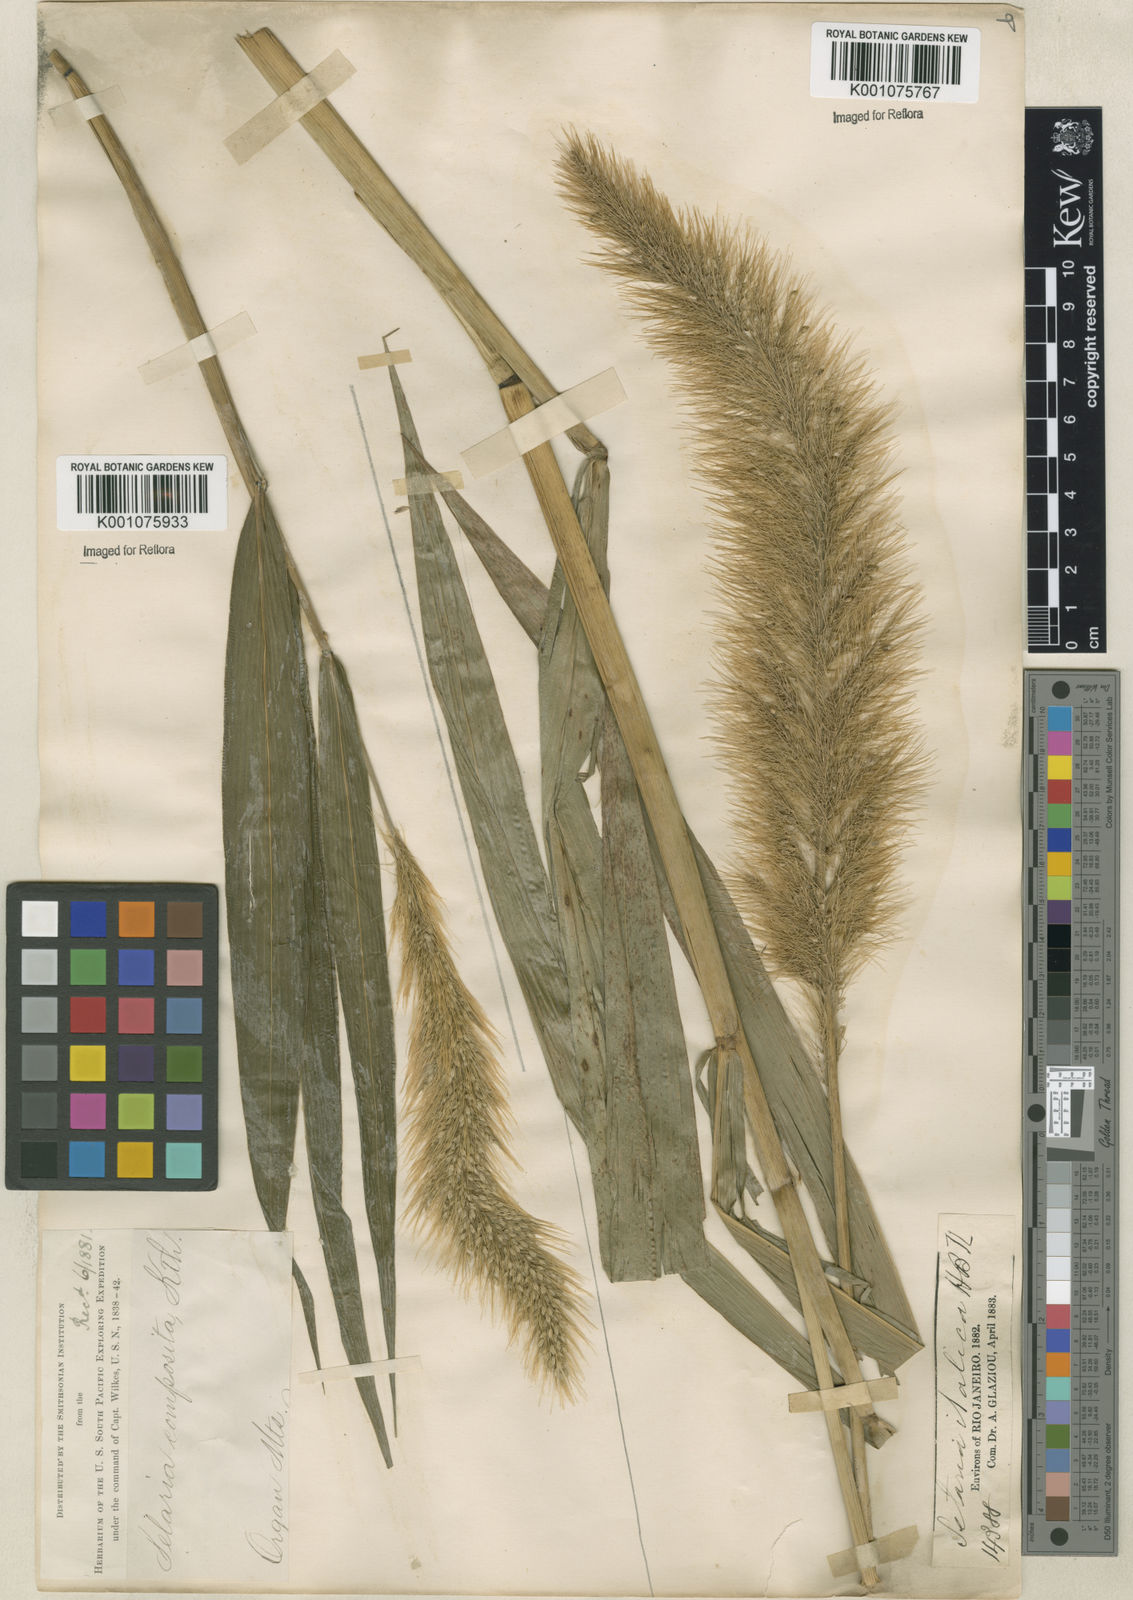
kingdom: Plantae
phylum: Tracheophyta
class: Liliopsida
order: Poales
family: Poaceae
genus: Setaria
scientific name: Setaria vulpiseta
